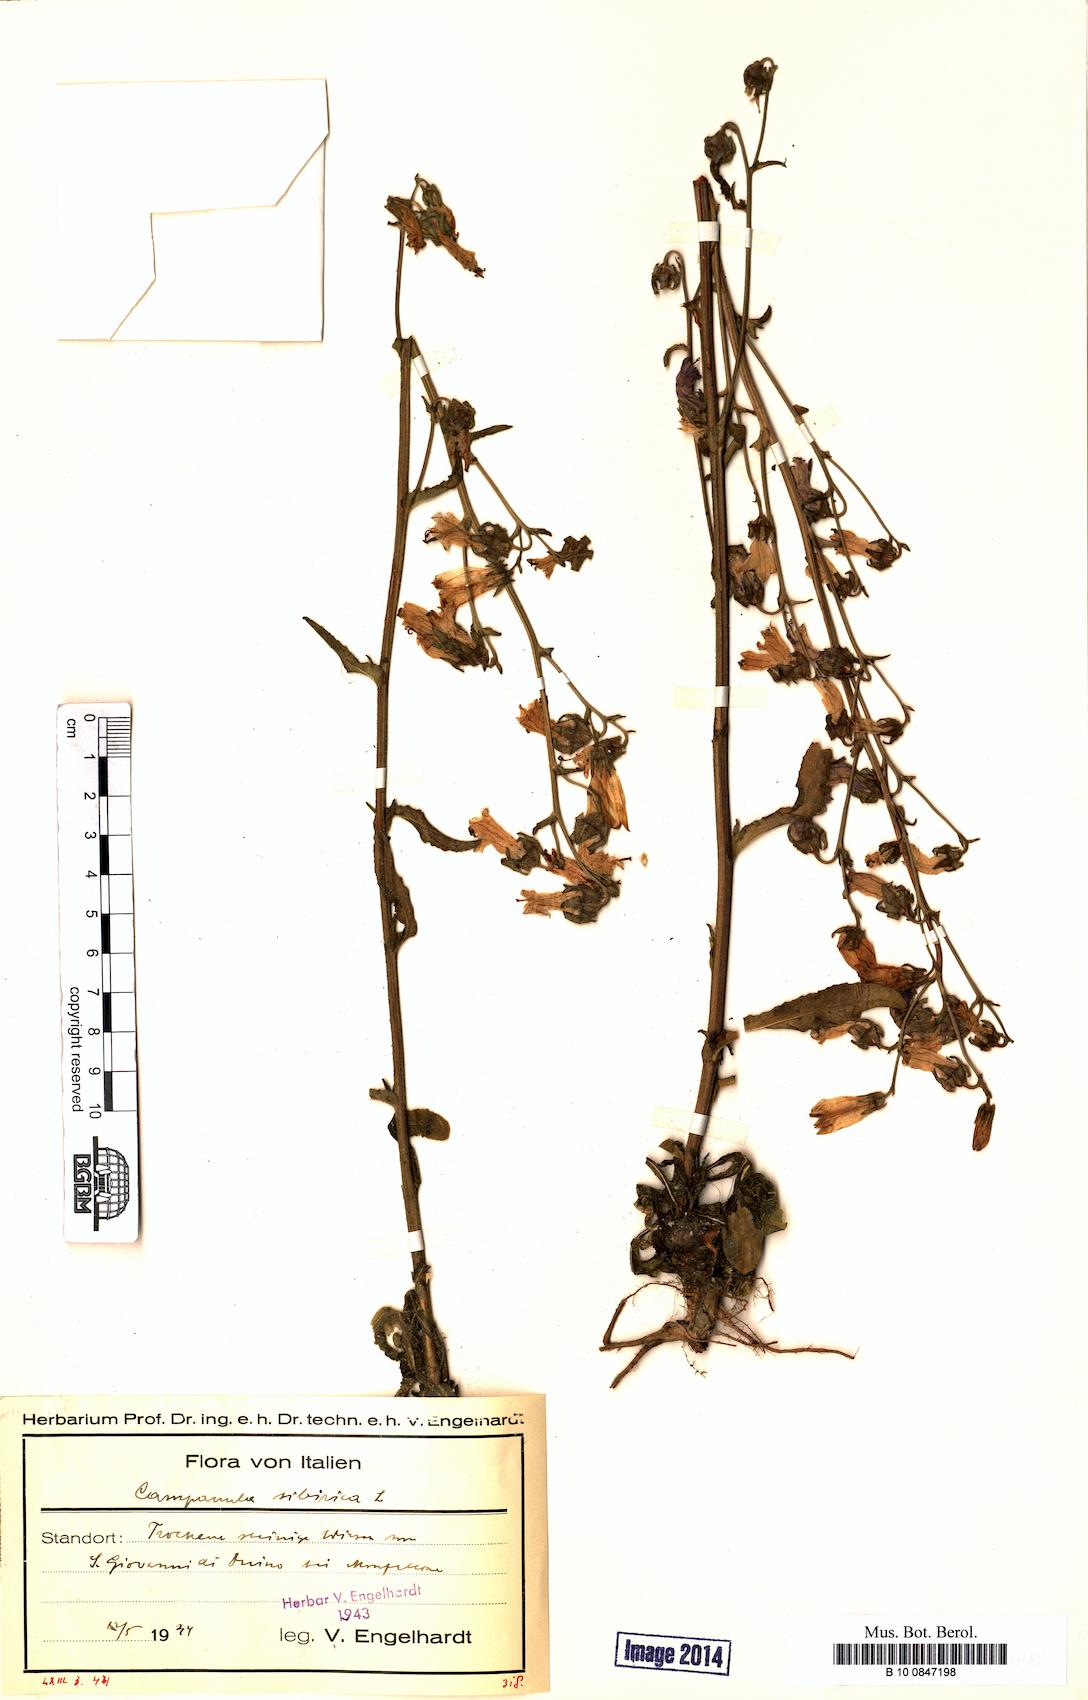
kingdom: Plantae
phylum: Tracheophyta
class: Magnoliopsida
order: Asterales
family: Campanulaceae
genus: Campanula
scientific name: Campanula sibirica
